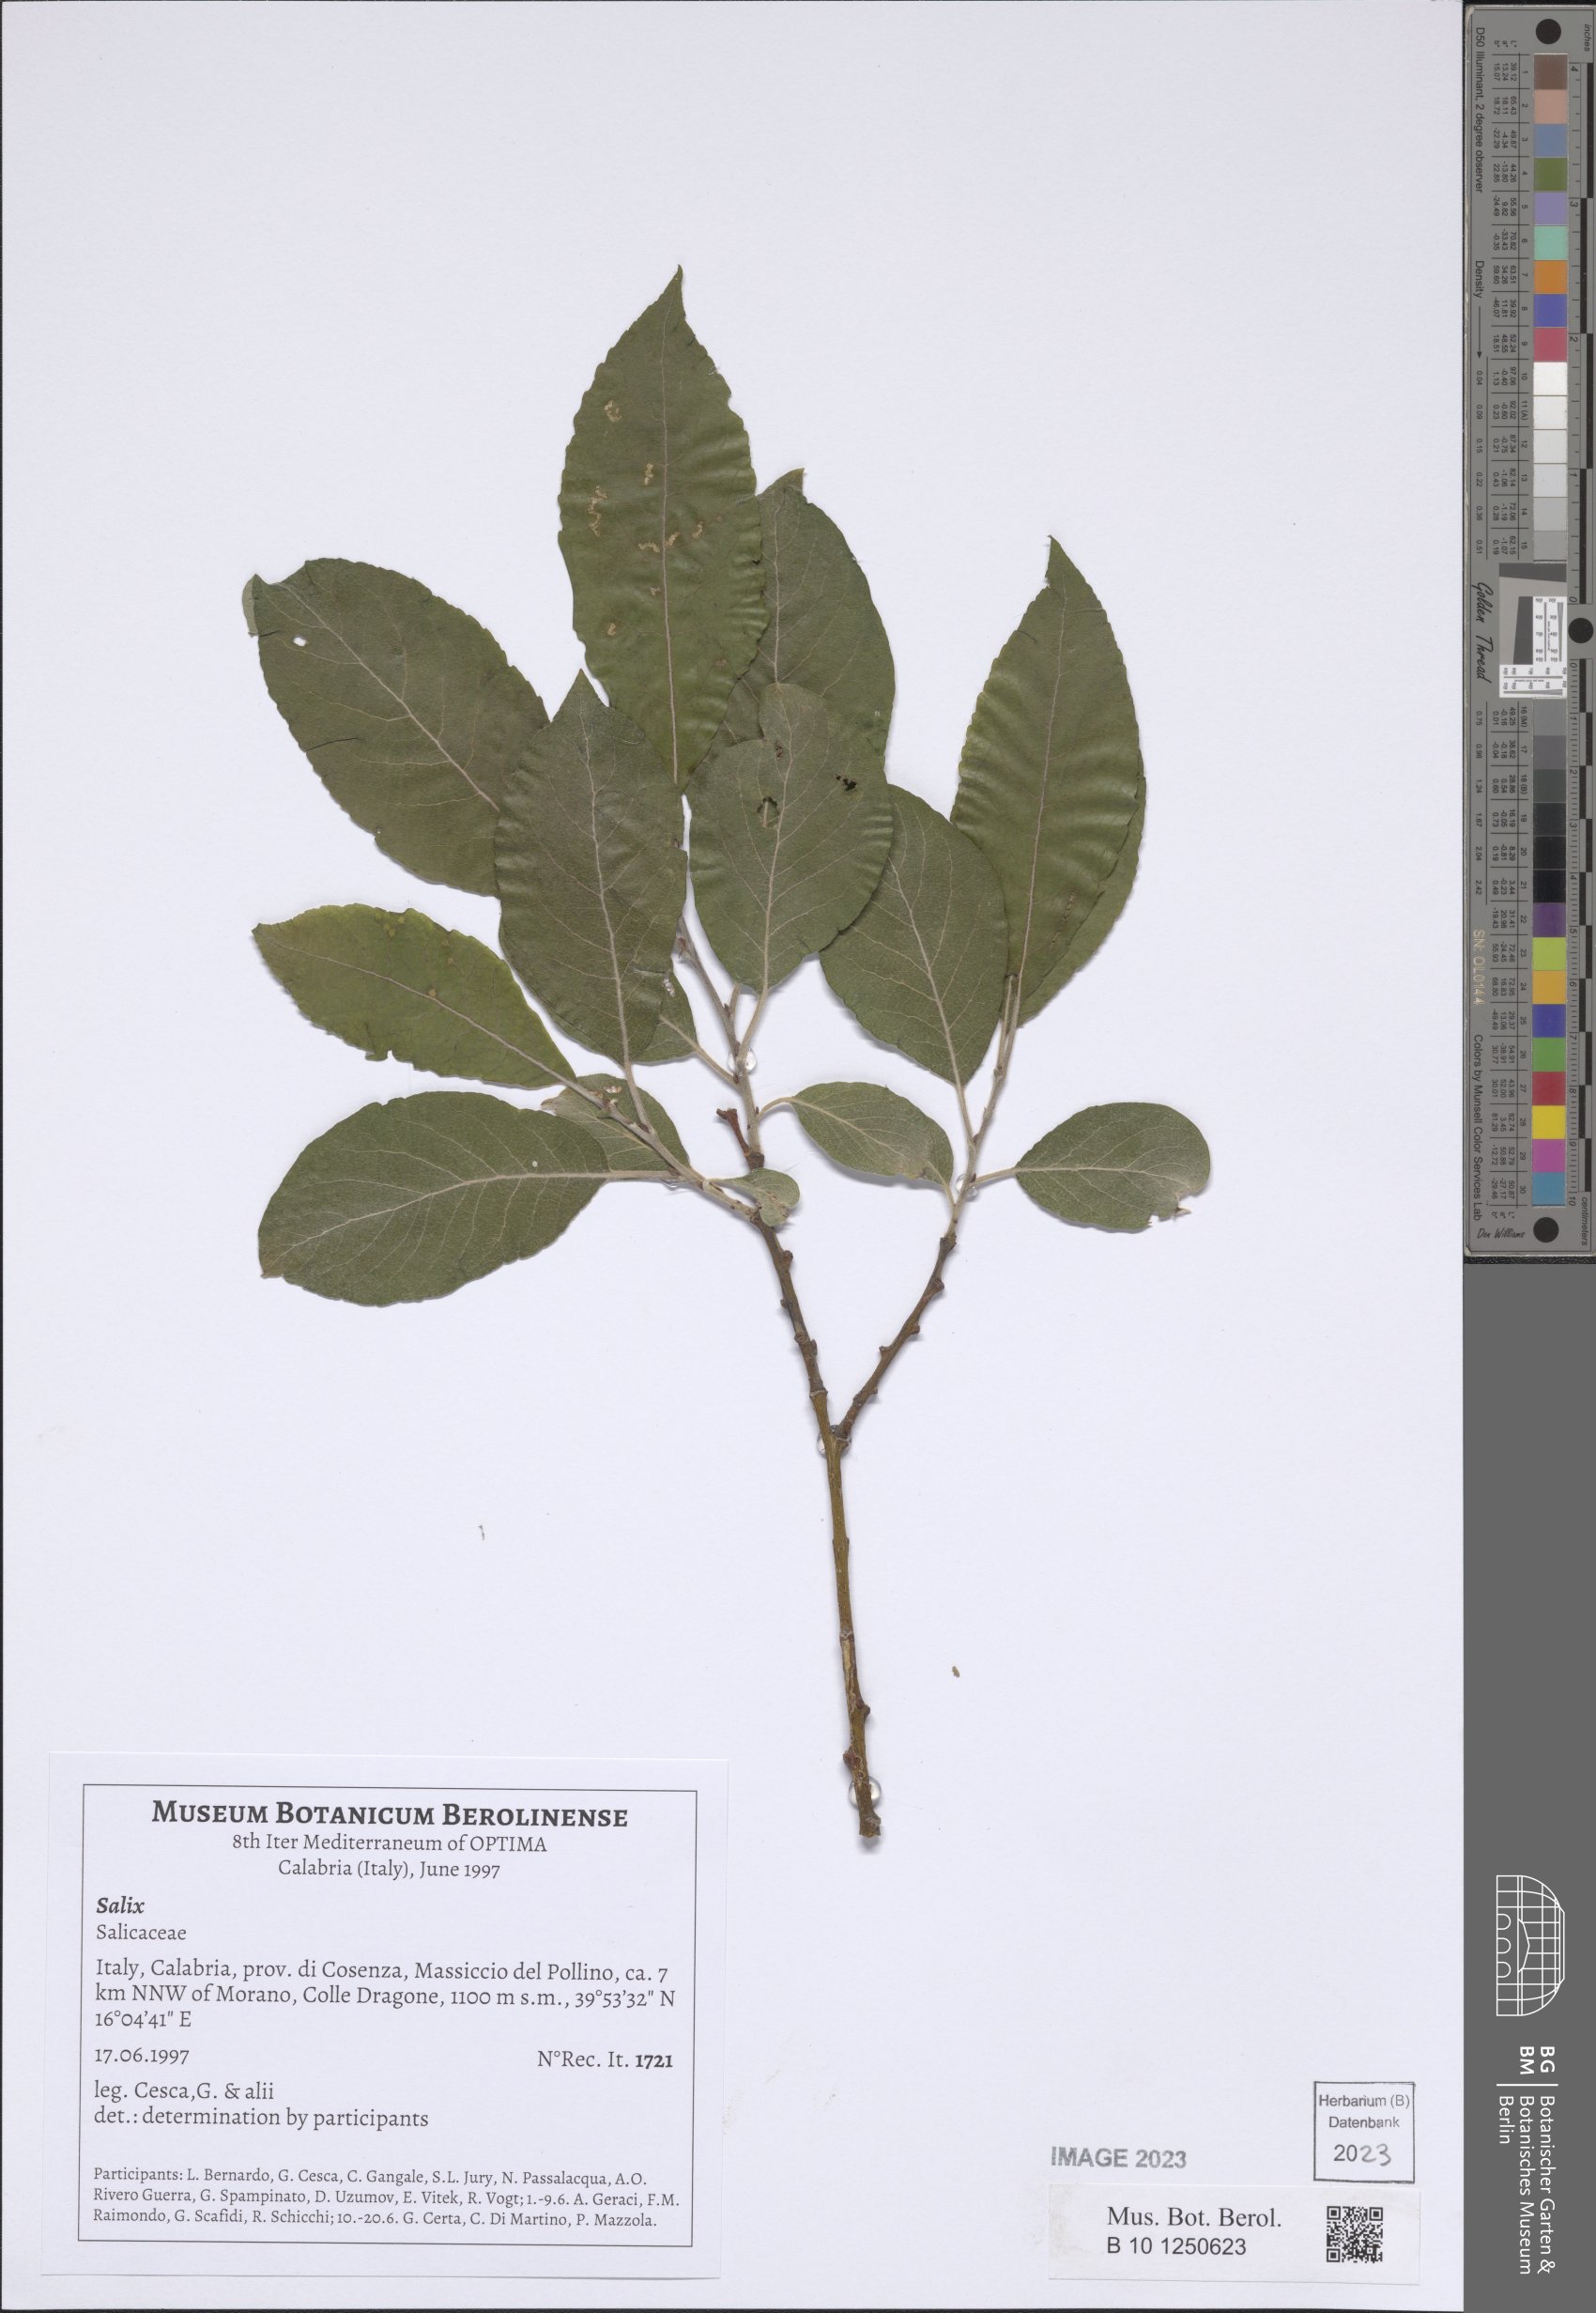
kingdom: Plantae
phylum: Tracheophyta
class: Magnoliopsida
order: Malpighiales
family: Salicaceae
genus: Salix
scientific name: Salix
